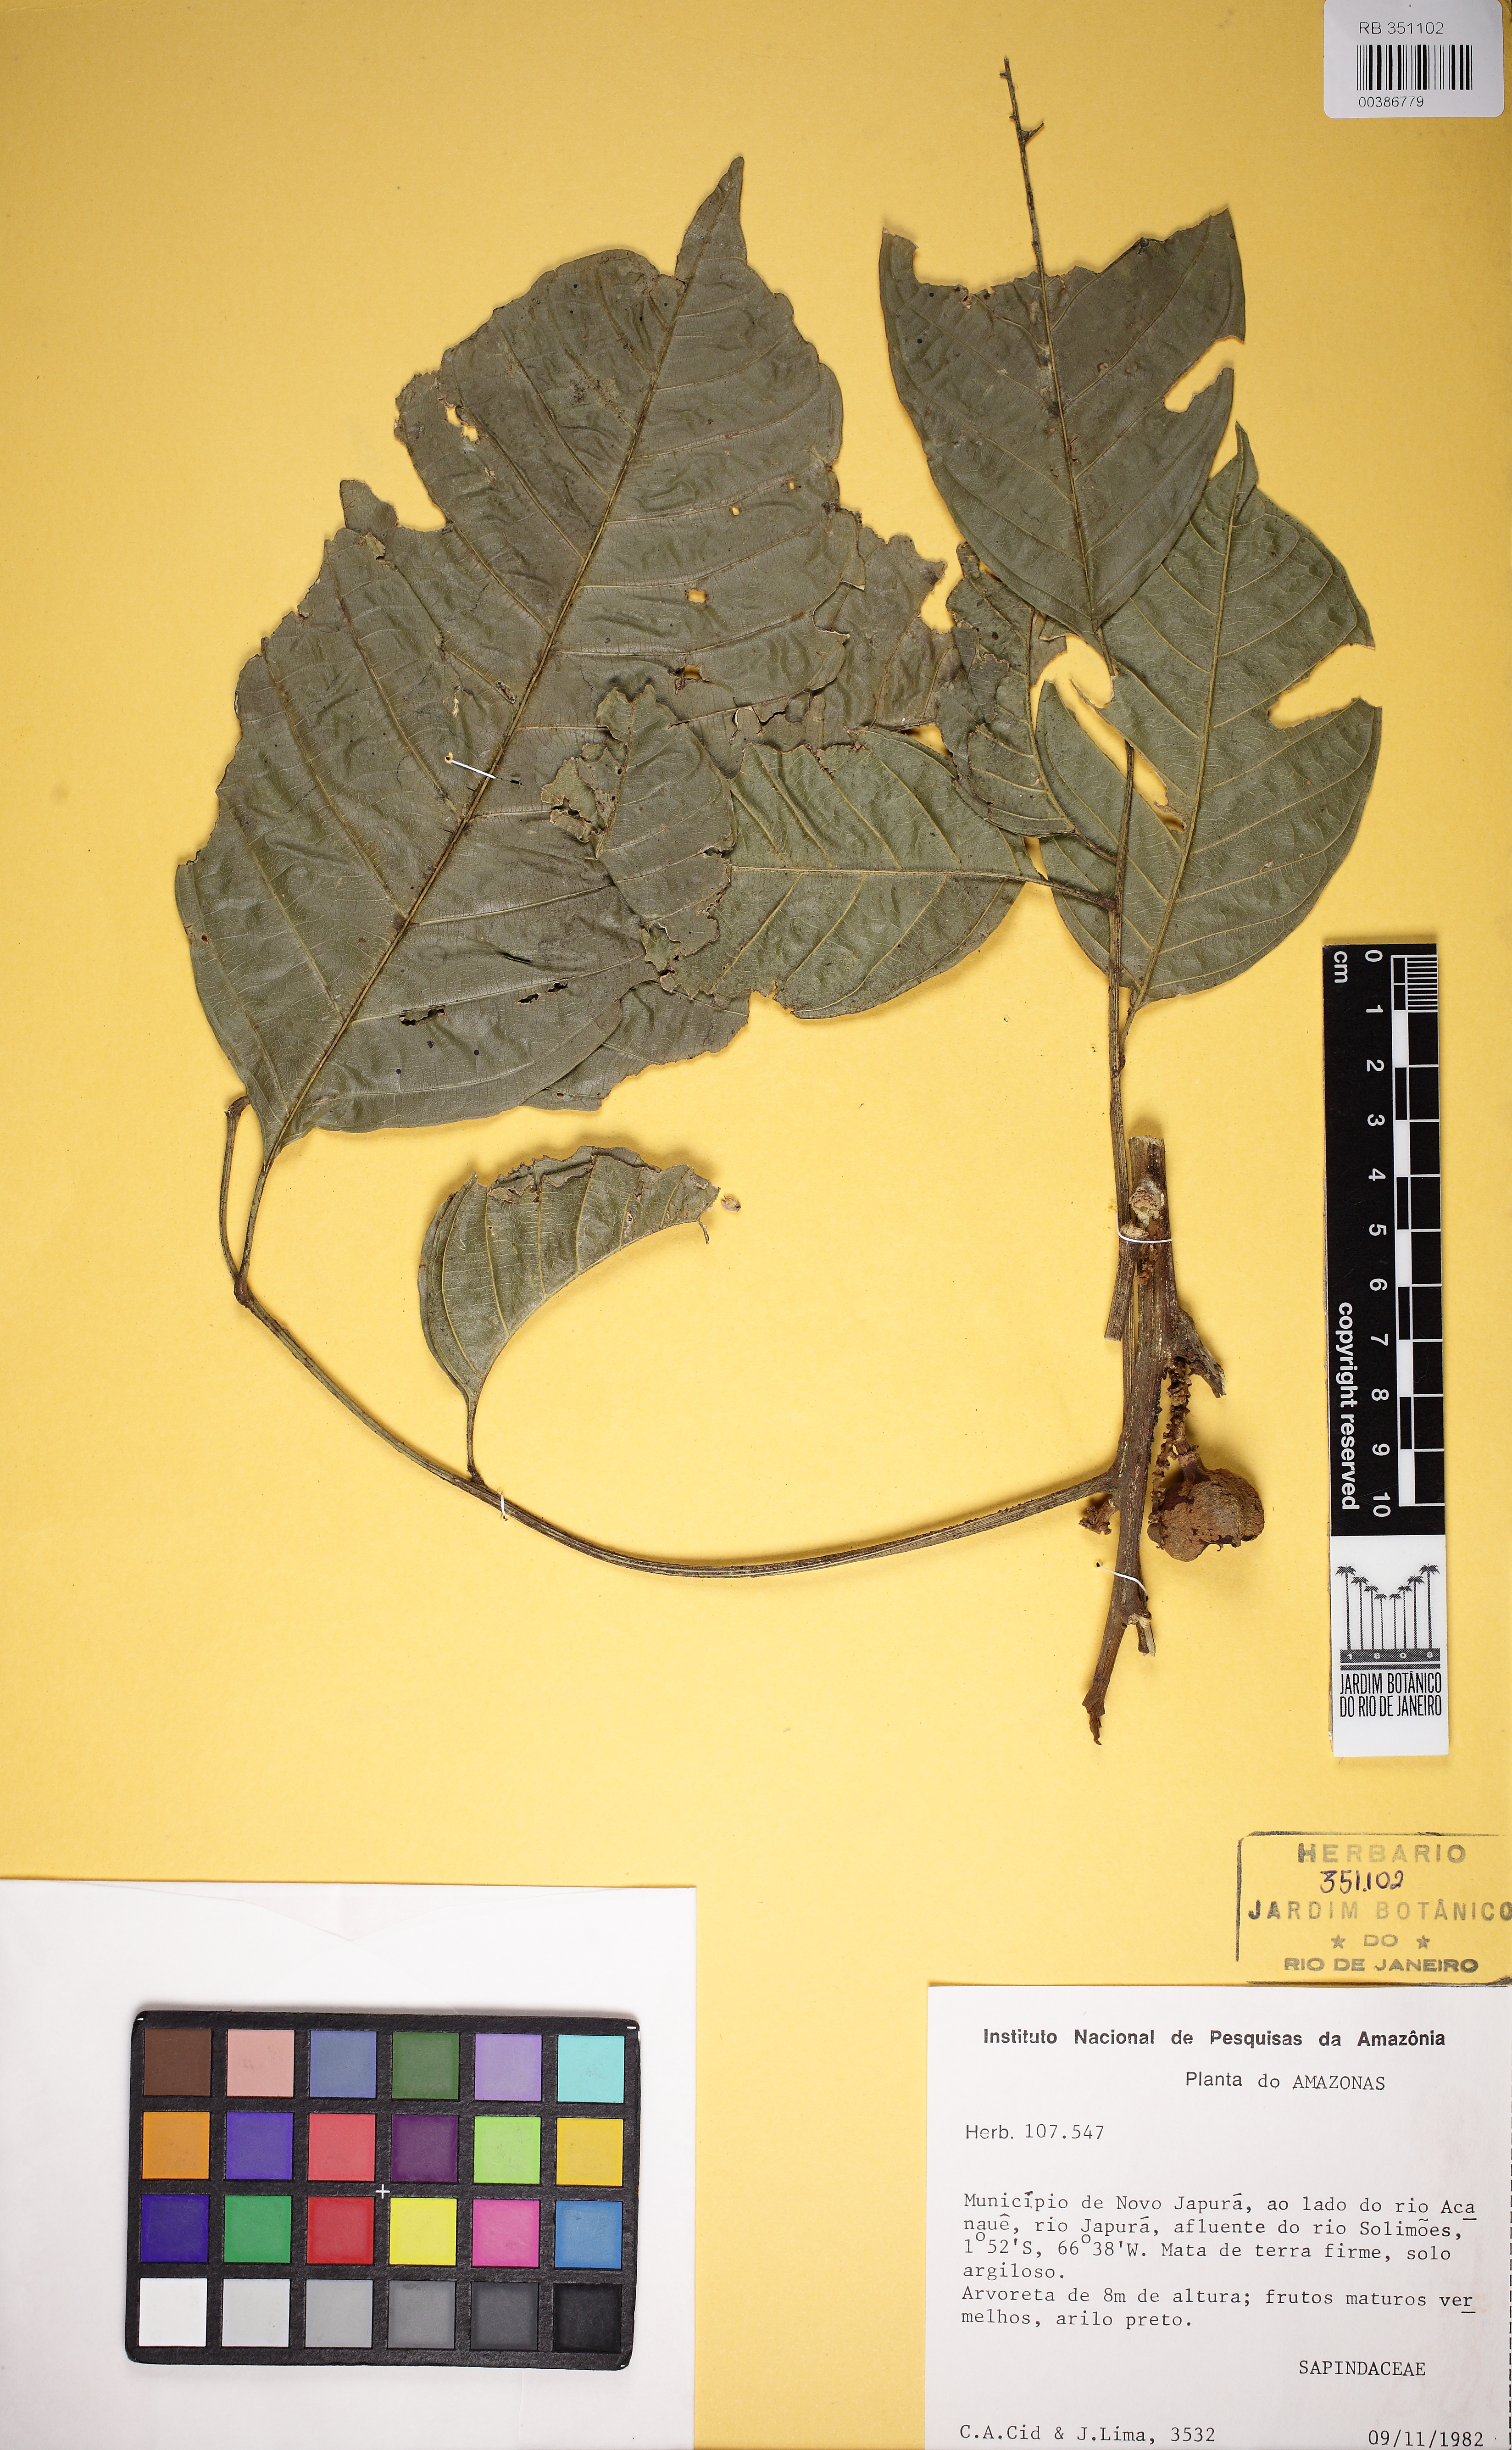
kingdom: Plantae
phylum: Tracheophyta
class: Magnoliopsida
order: Sapindales
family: Sapindaceae
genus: Matayba
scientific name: Matayba
